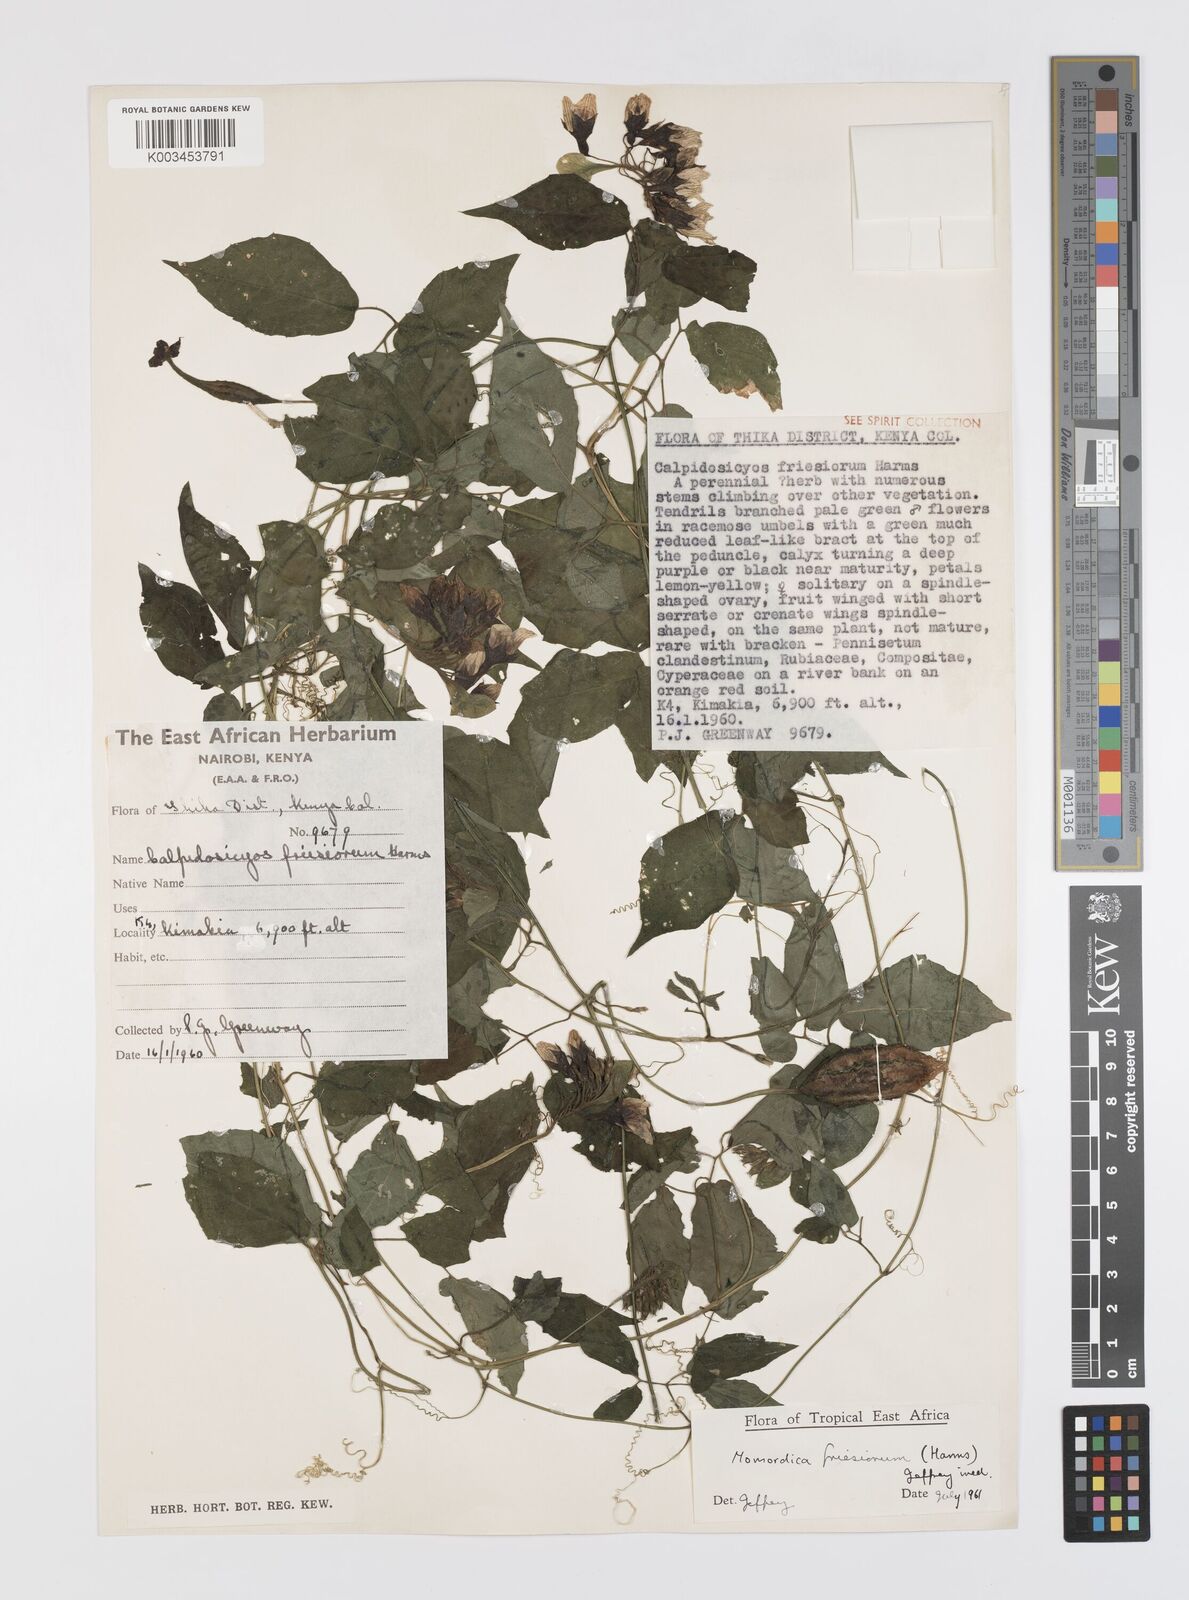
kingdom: Plantae
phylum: Tracheophyta
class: Magnoliopsida
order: Cucurbitales
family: Cucurbitaceae
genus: Momordica
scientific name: Momordica friesiorum
